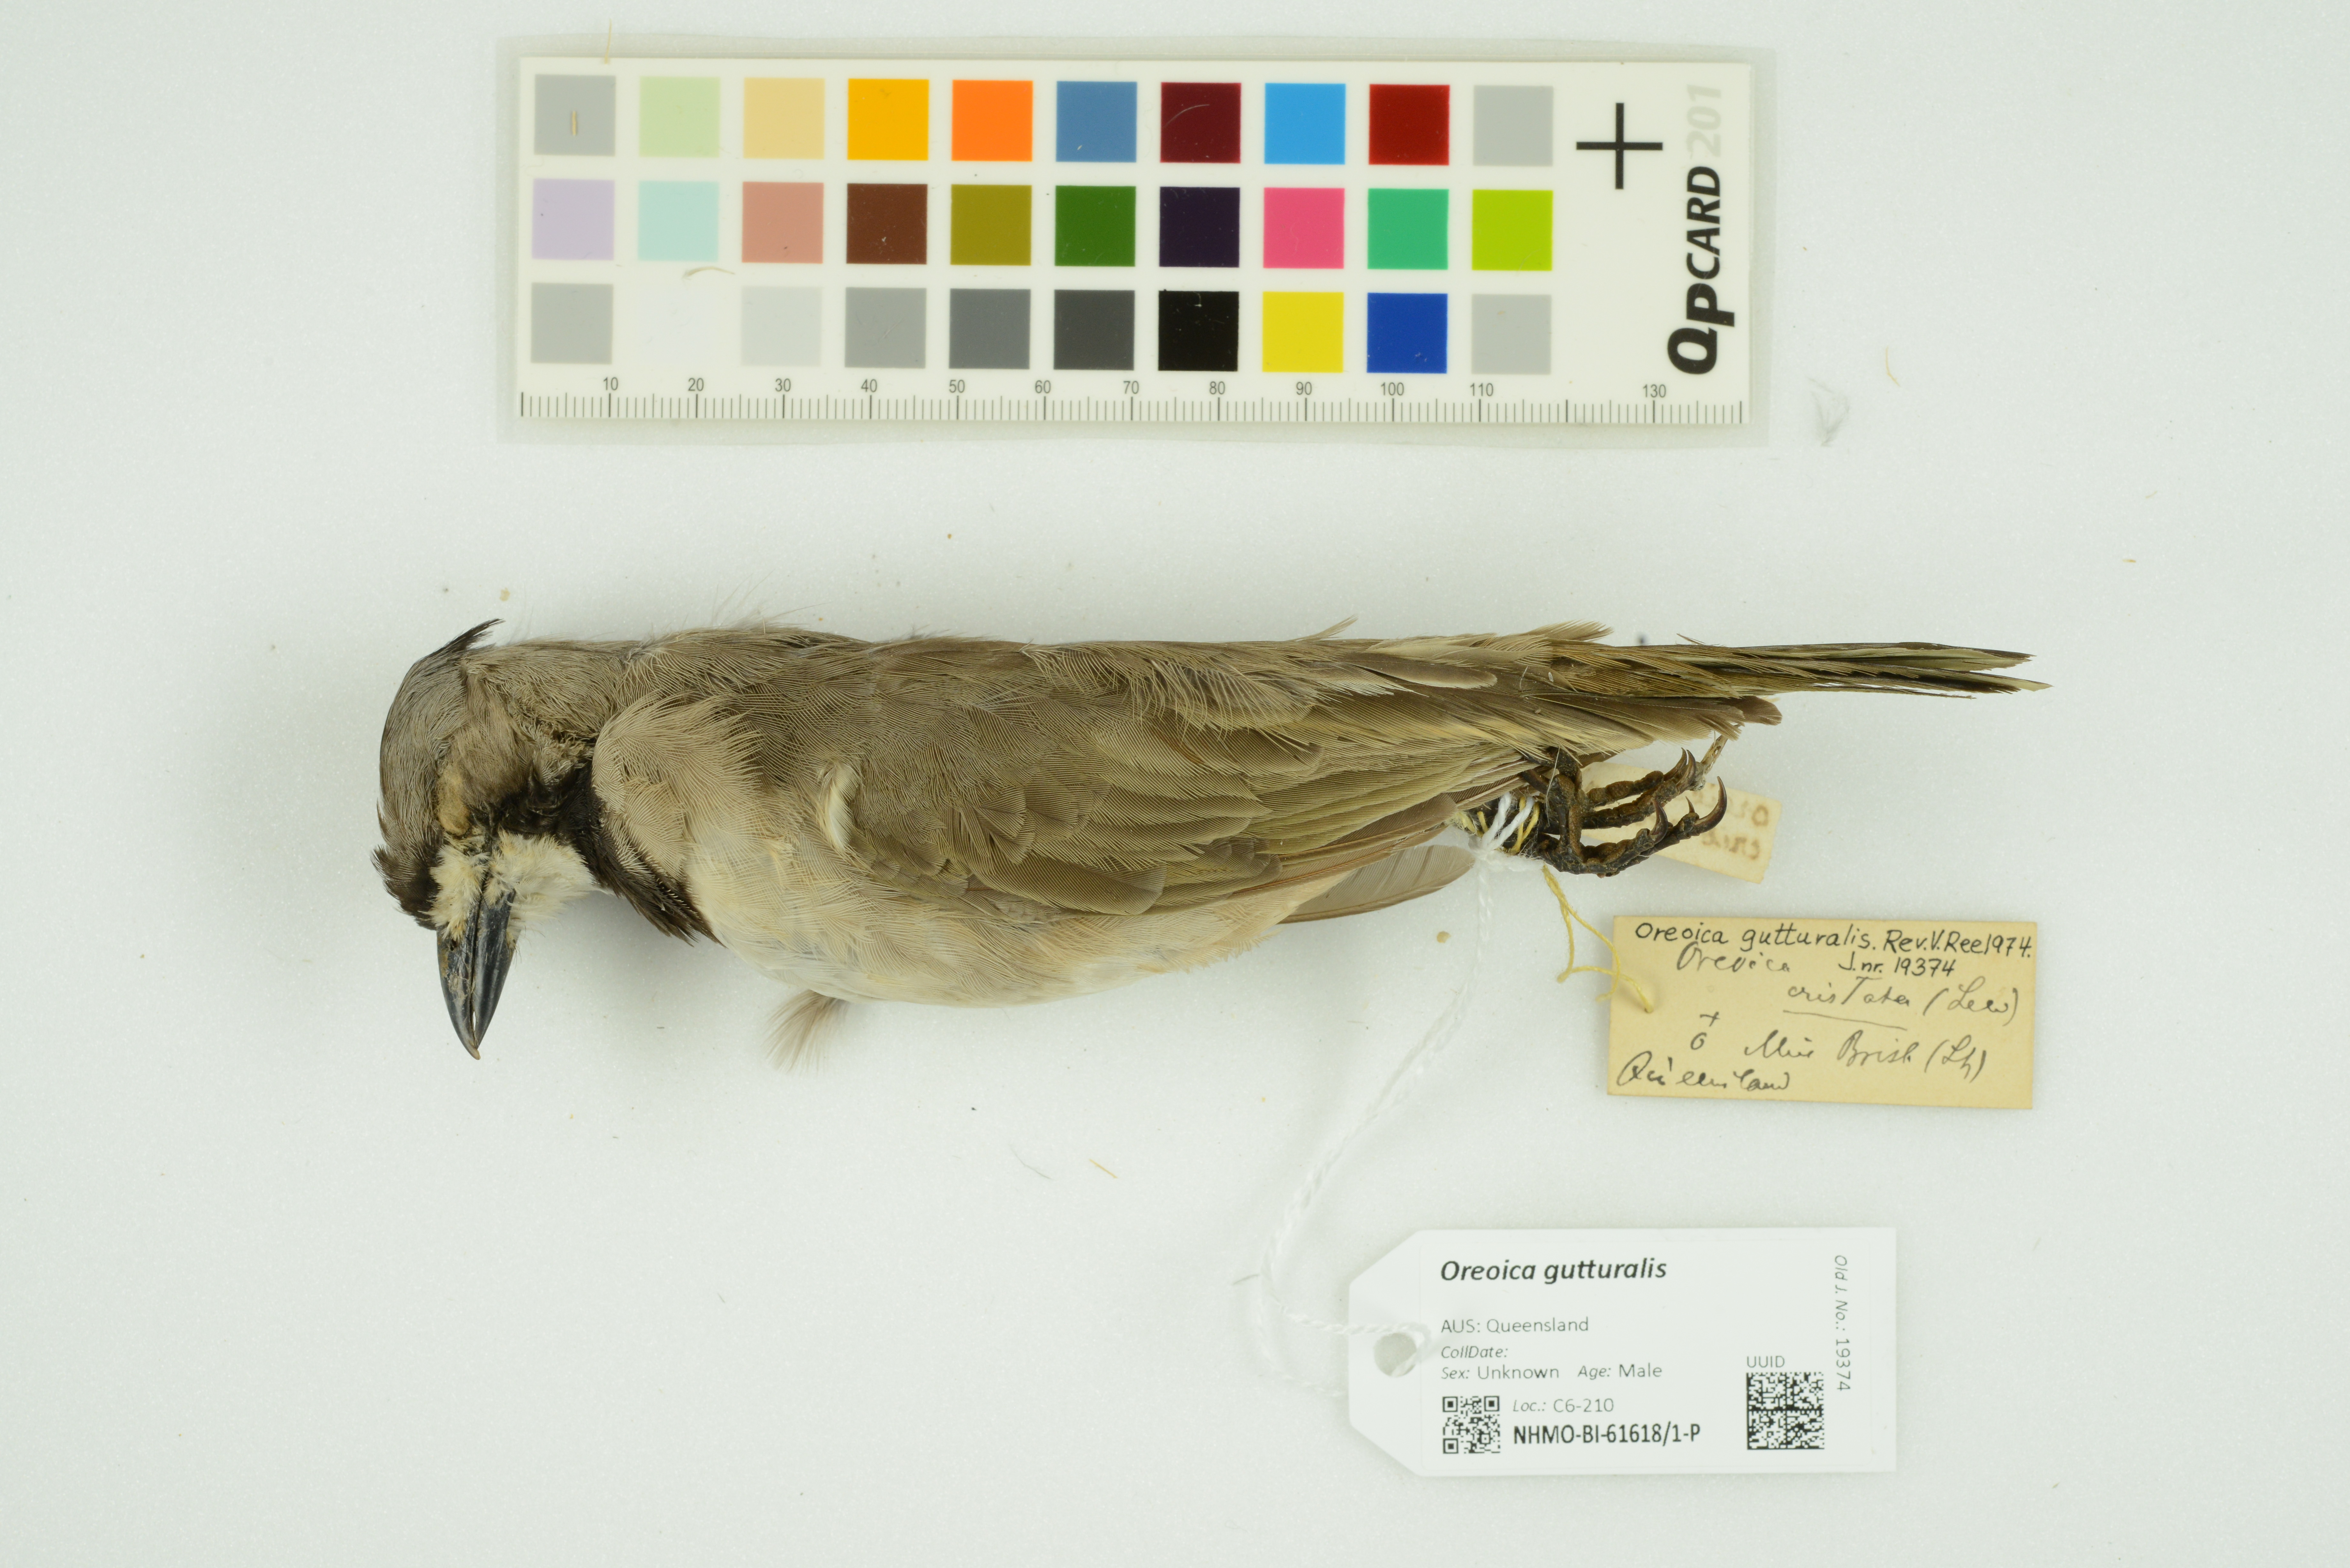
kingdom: Animalia
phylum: Chordata
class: Aves
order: Passeriformes
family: Oreoicidae
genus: Oreoica
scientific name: Oreoica gutturalis
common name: Crested bellbird
